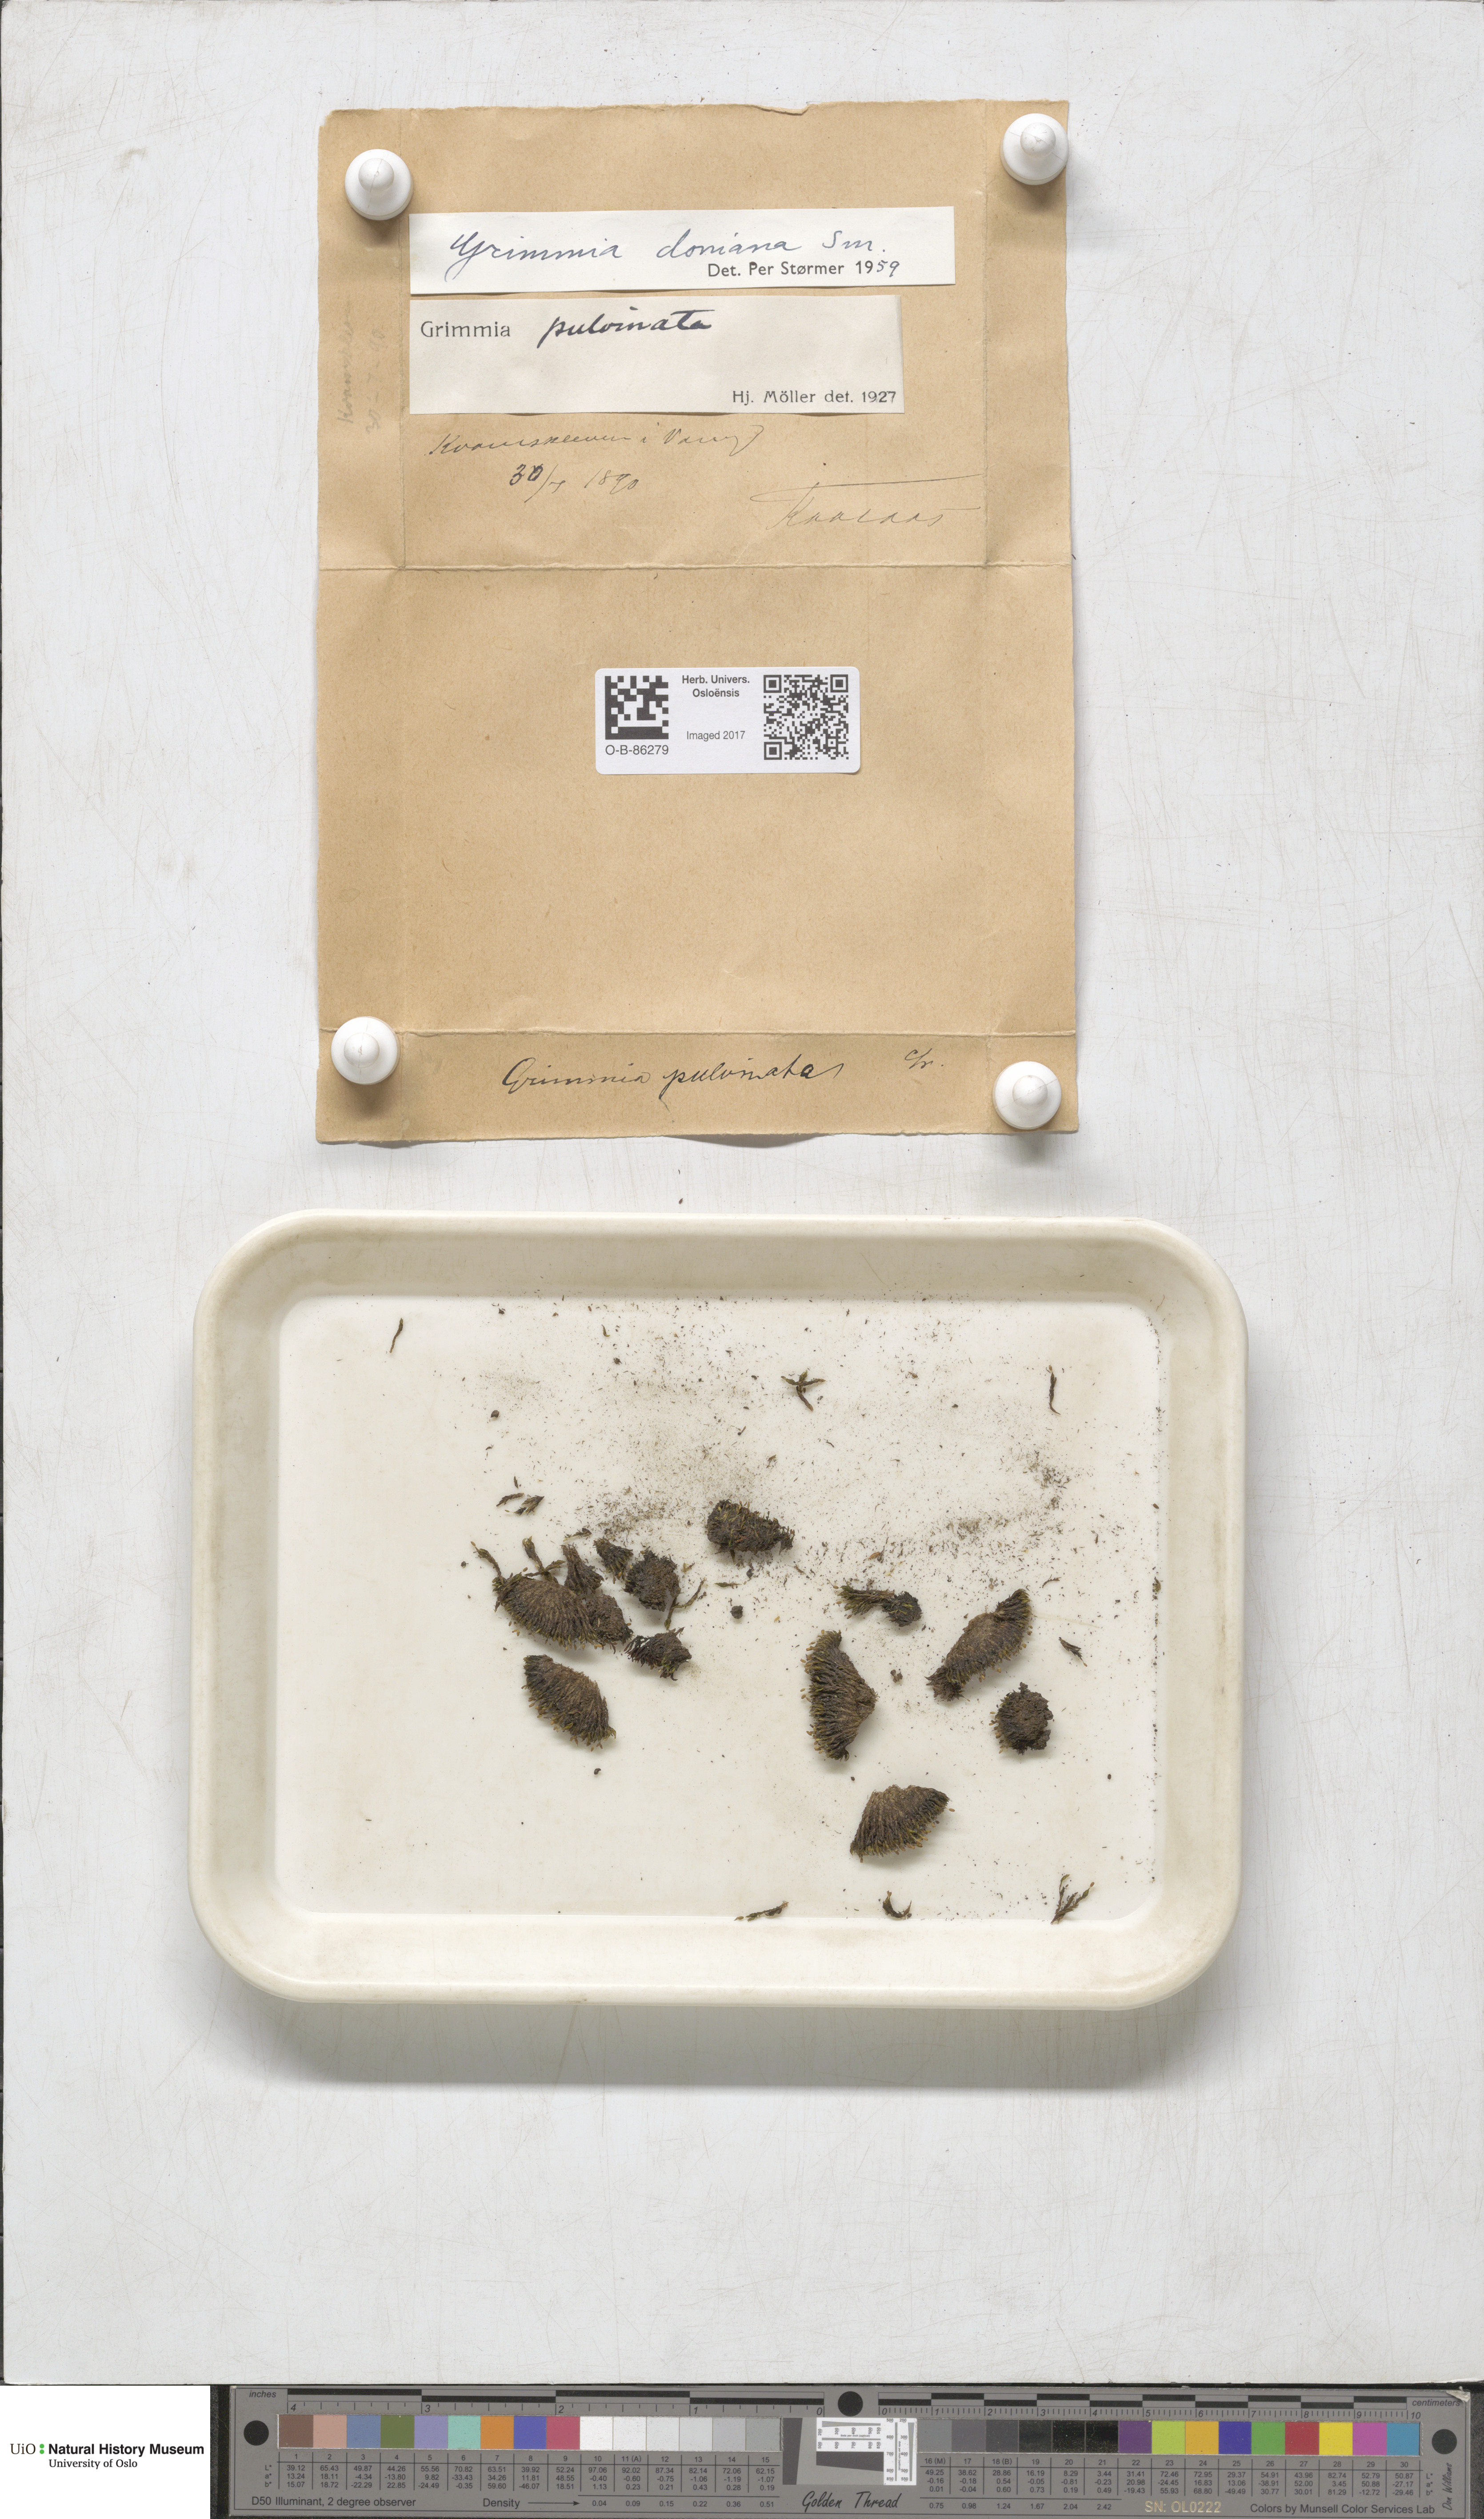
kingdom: Plantae
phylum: Bryophyta
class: Bryopsida
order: Grimmiales
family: Grimmiaceae
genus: Grimmia
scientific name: Grimmia donniana
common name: Donn's grimmia
